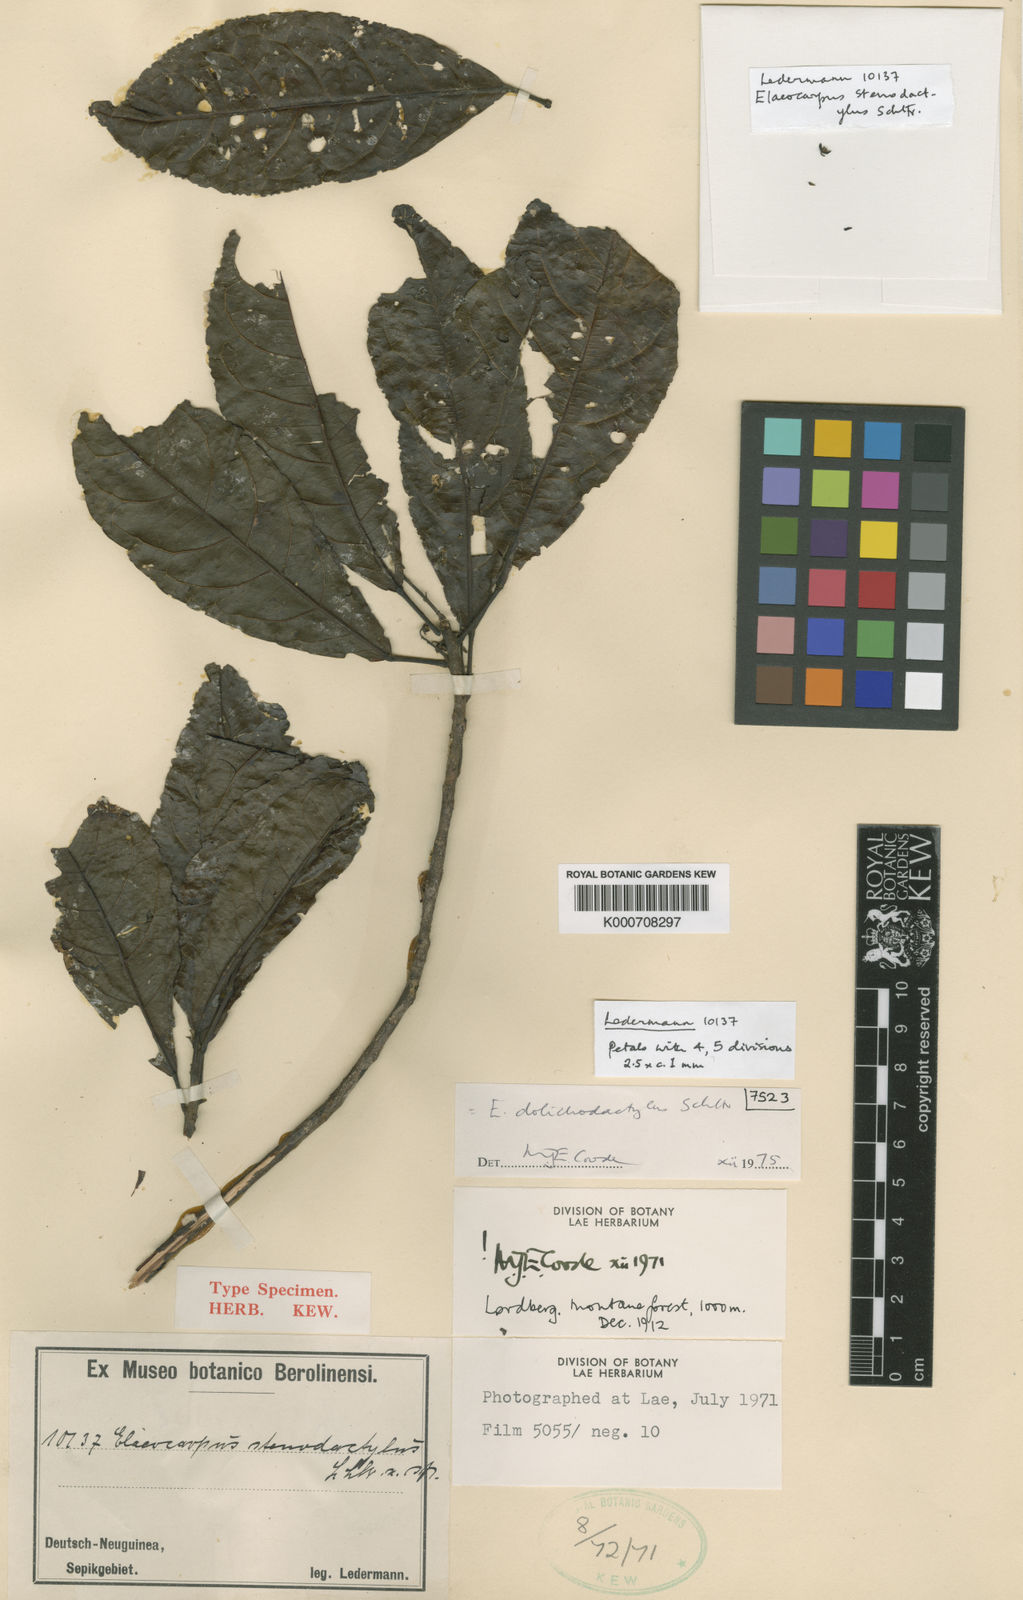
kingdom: Plantae
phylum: Tracheophyta
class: Magnoliopsida
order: Oxalidales
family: Elaeocarpaceae
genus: Elaeocarpus
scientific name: Elaeocarpus dolichodactylus
